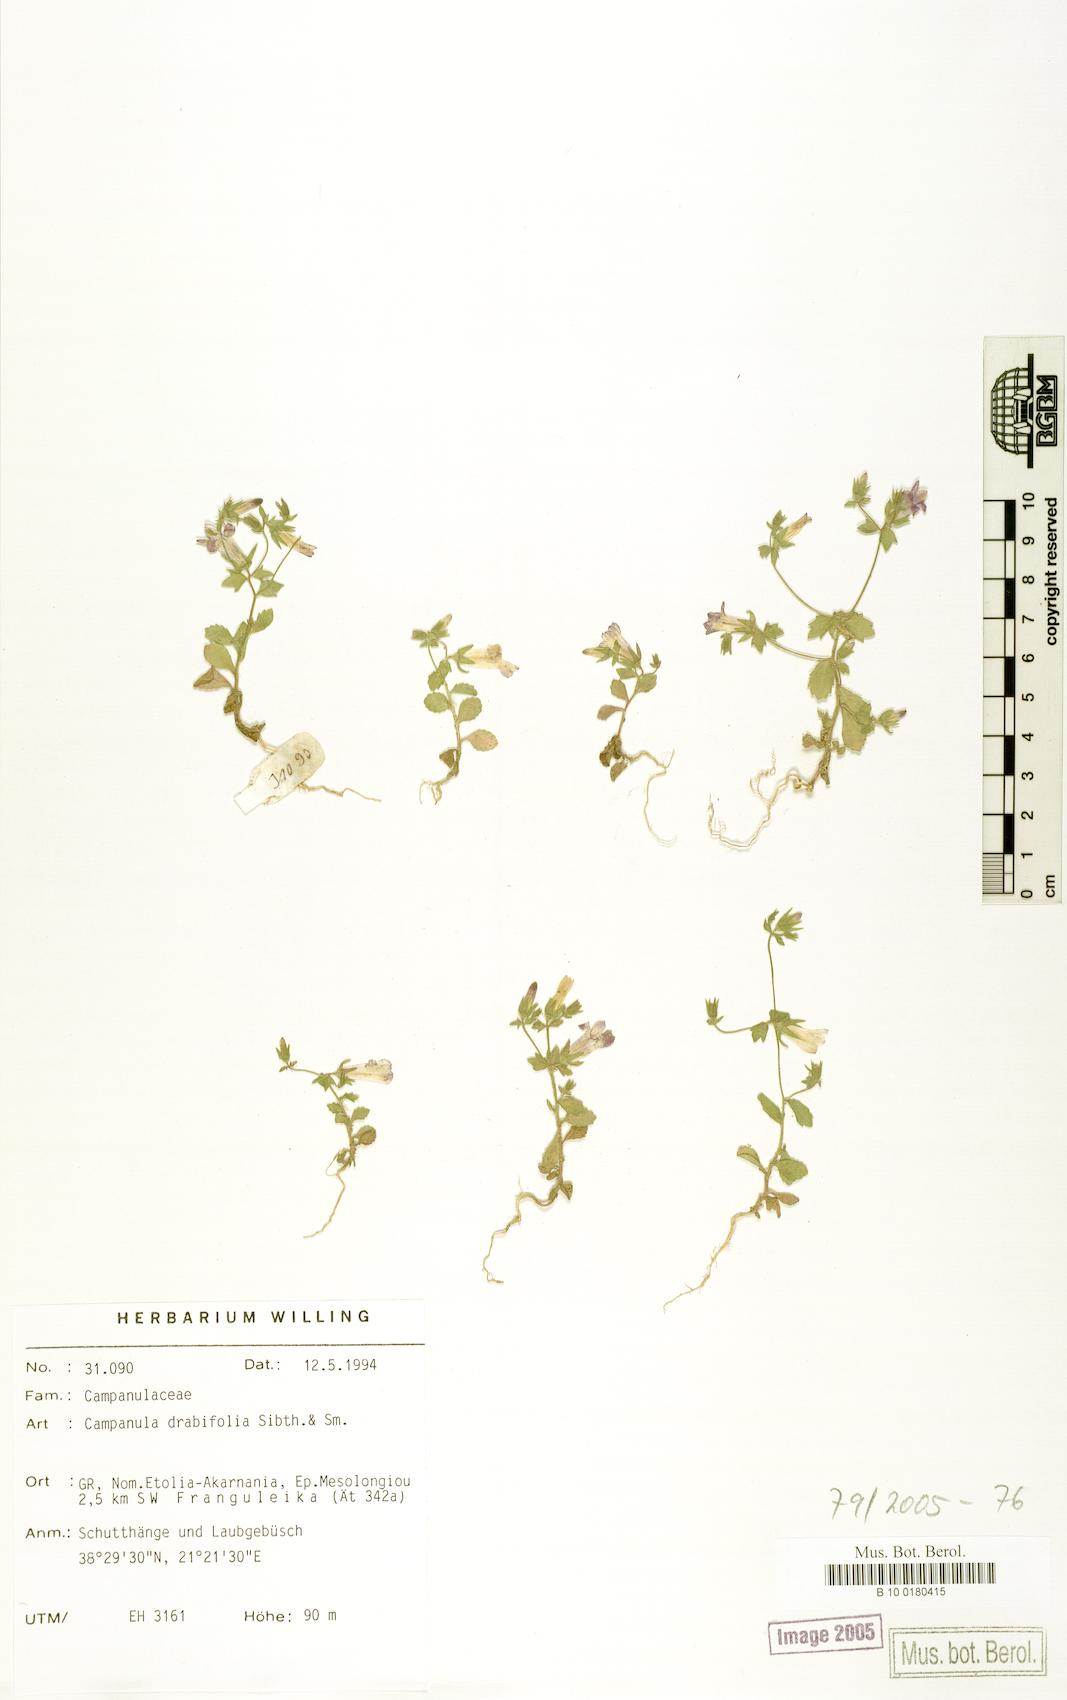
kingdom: Plantae
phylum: Tracheophyta
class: Magnoliopsida
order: Asterales
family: Campanulaceae
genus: Campanula
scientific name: Campanula drabifolia
